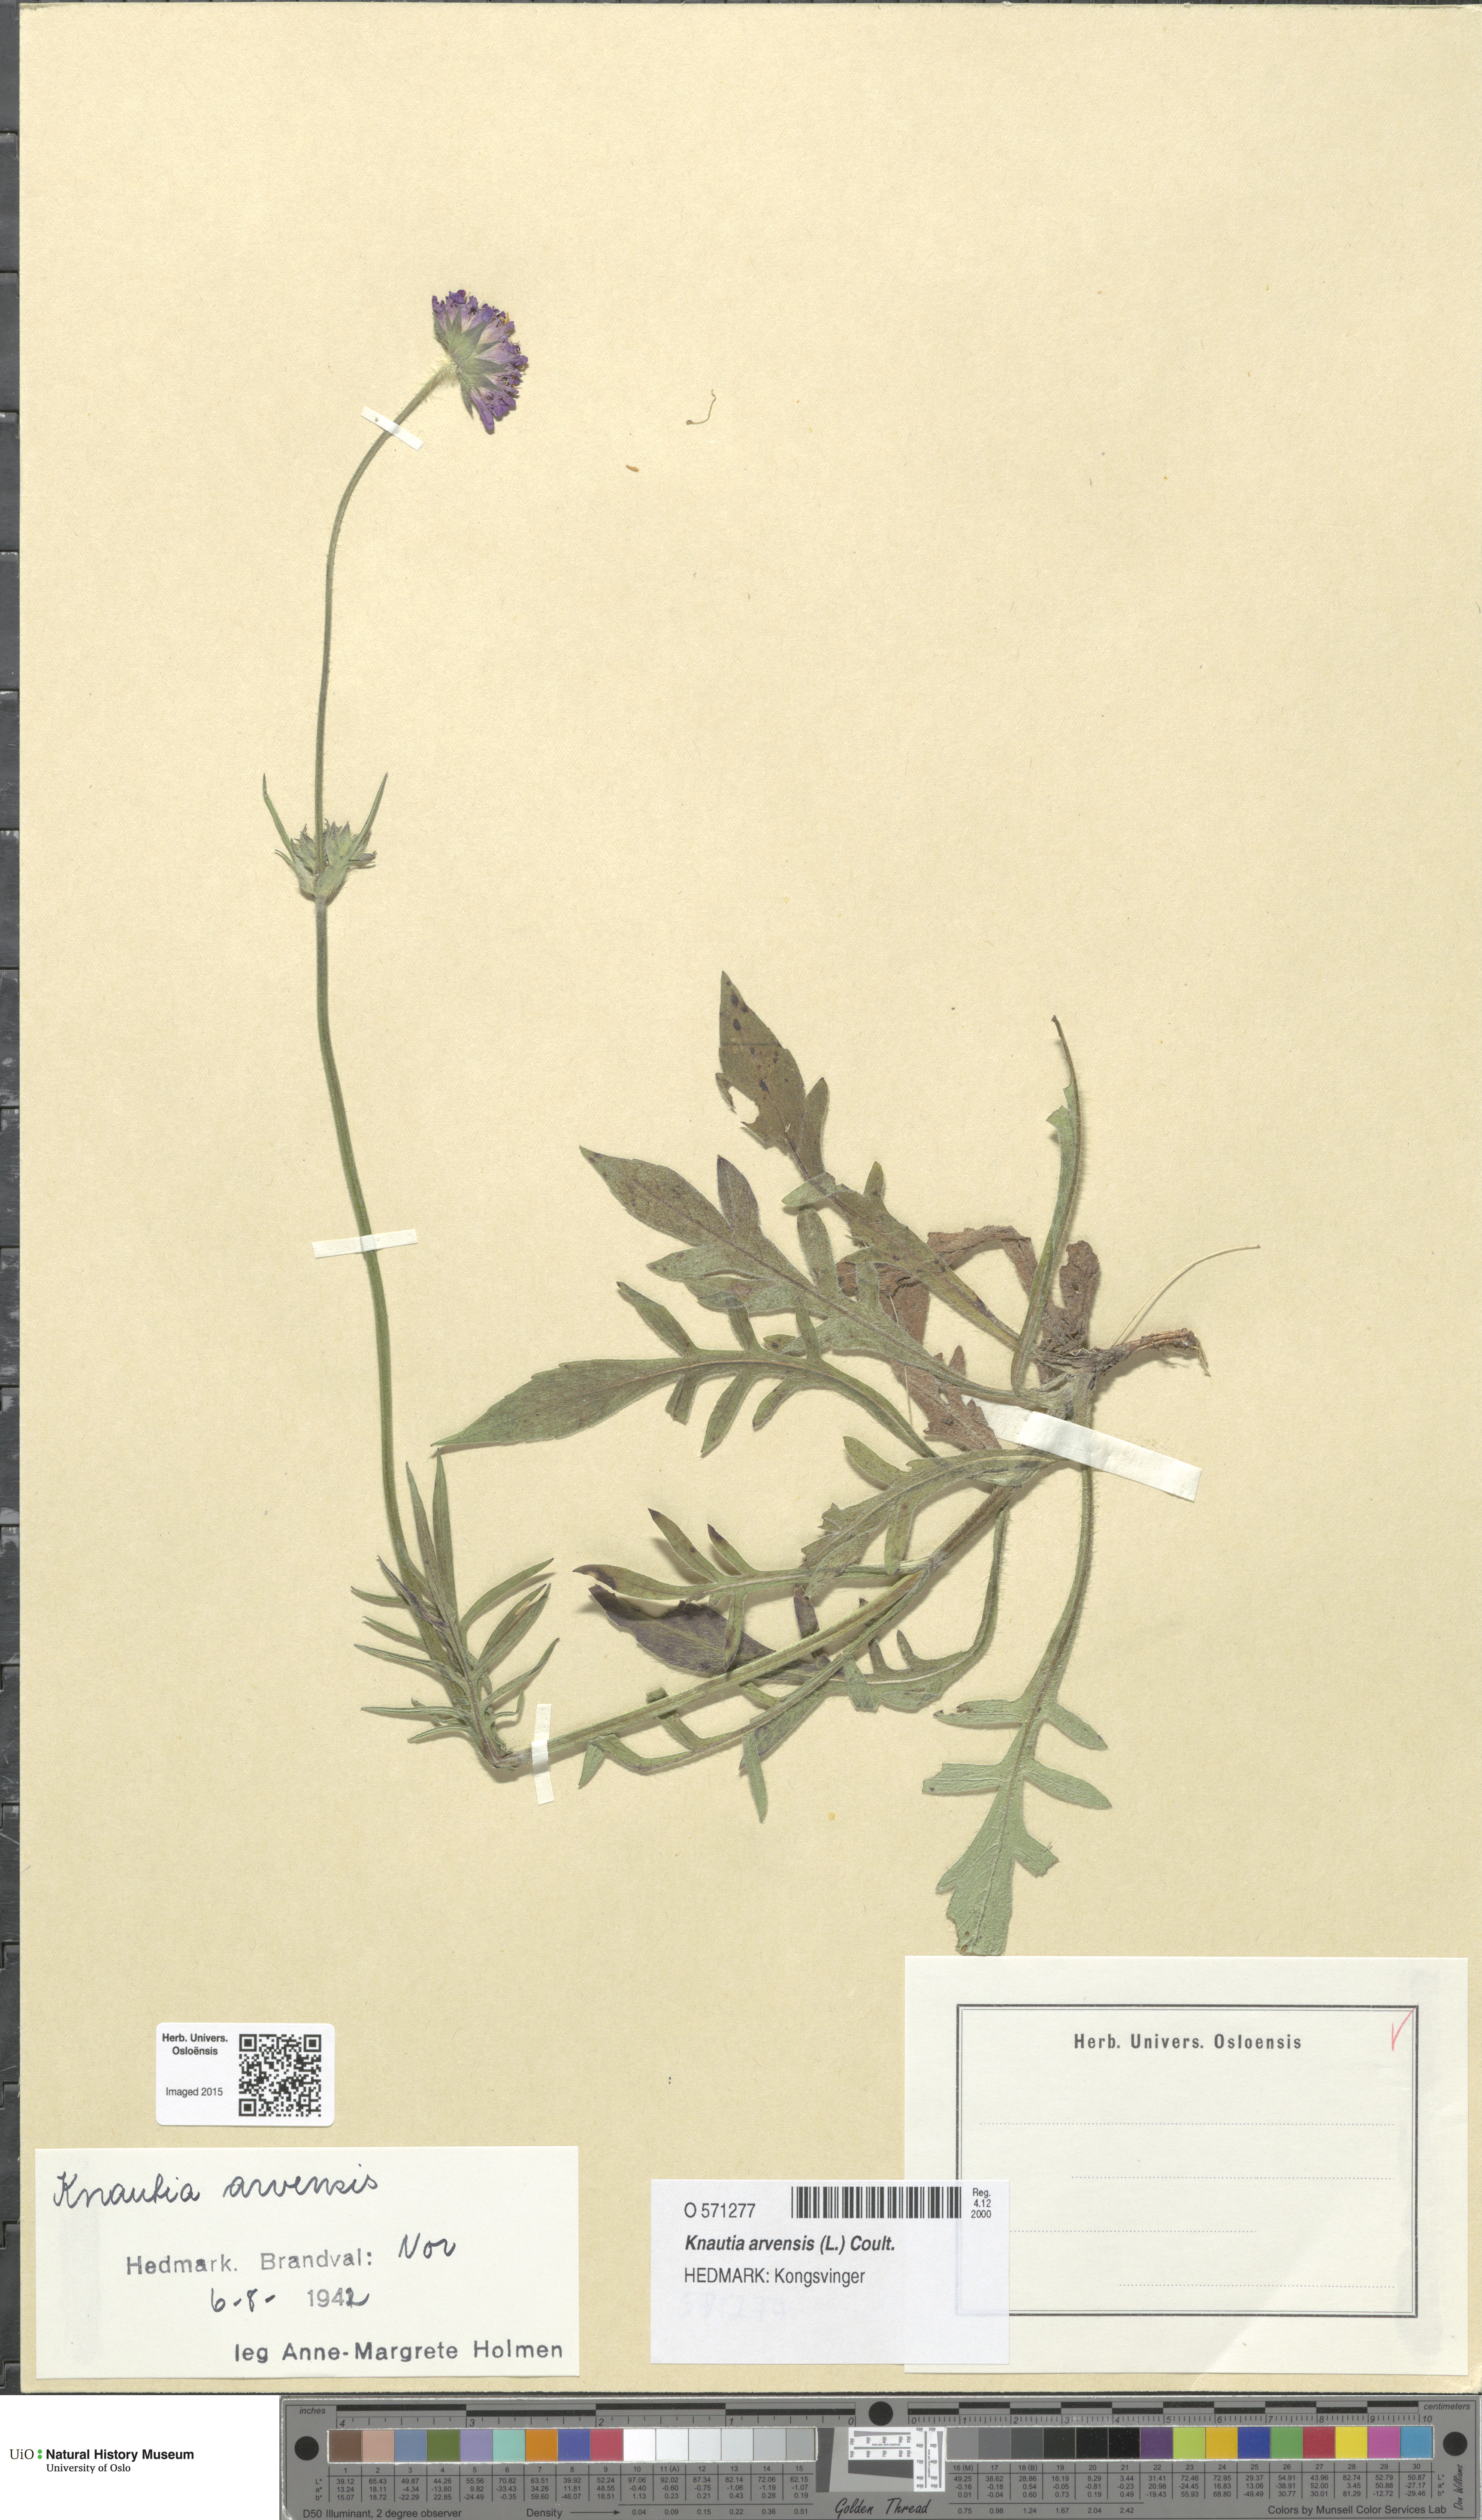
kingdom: Plantae
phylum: Tracheophyta
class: Magnoliopsida
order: Dipsacales
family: Caprifoliaceae
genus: Knautia
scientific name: Knautia arvensis
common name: Field scabiosa
